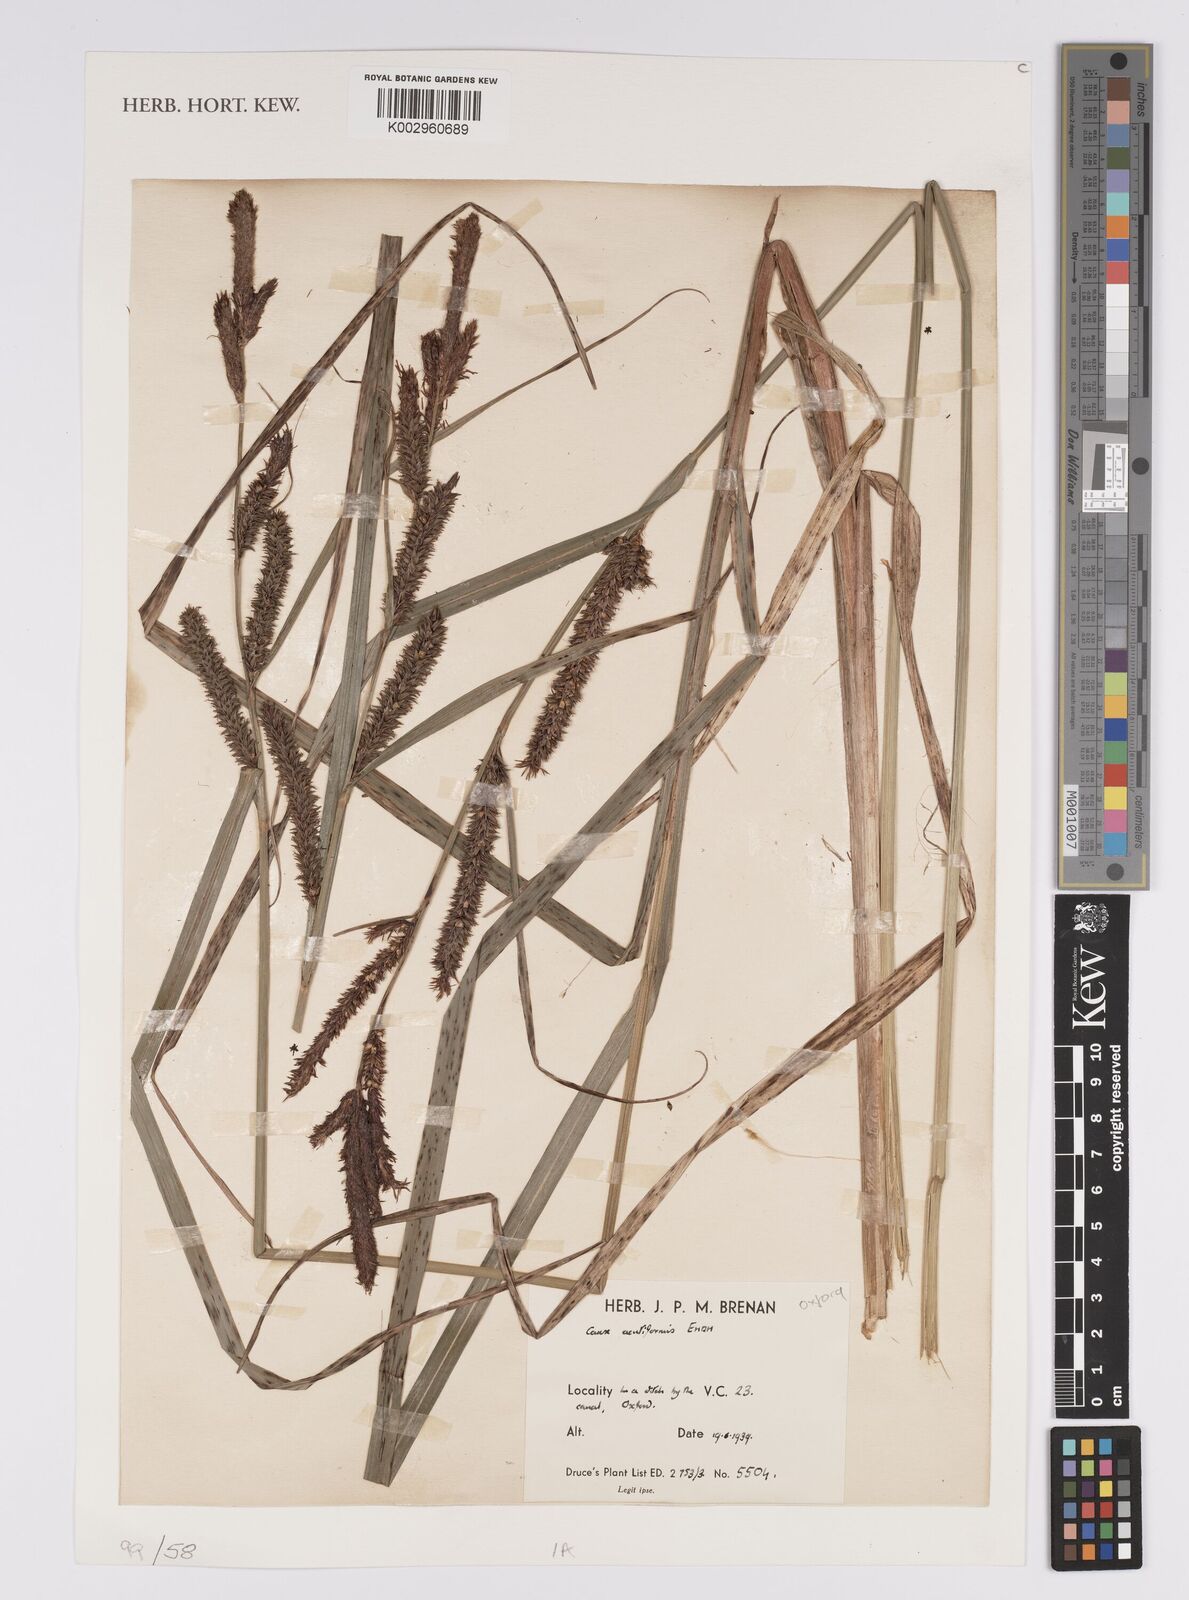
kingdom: Plantae
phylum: Tracheophyta
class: Liliopsida
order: Poales
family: Cyperaceae
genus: Carex
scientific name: Carex acutiformis
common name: Lesser pond-sedge
